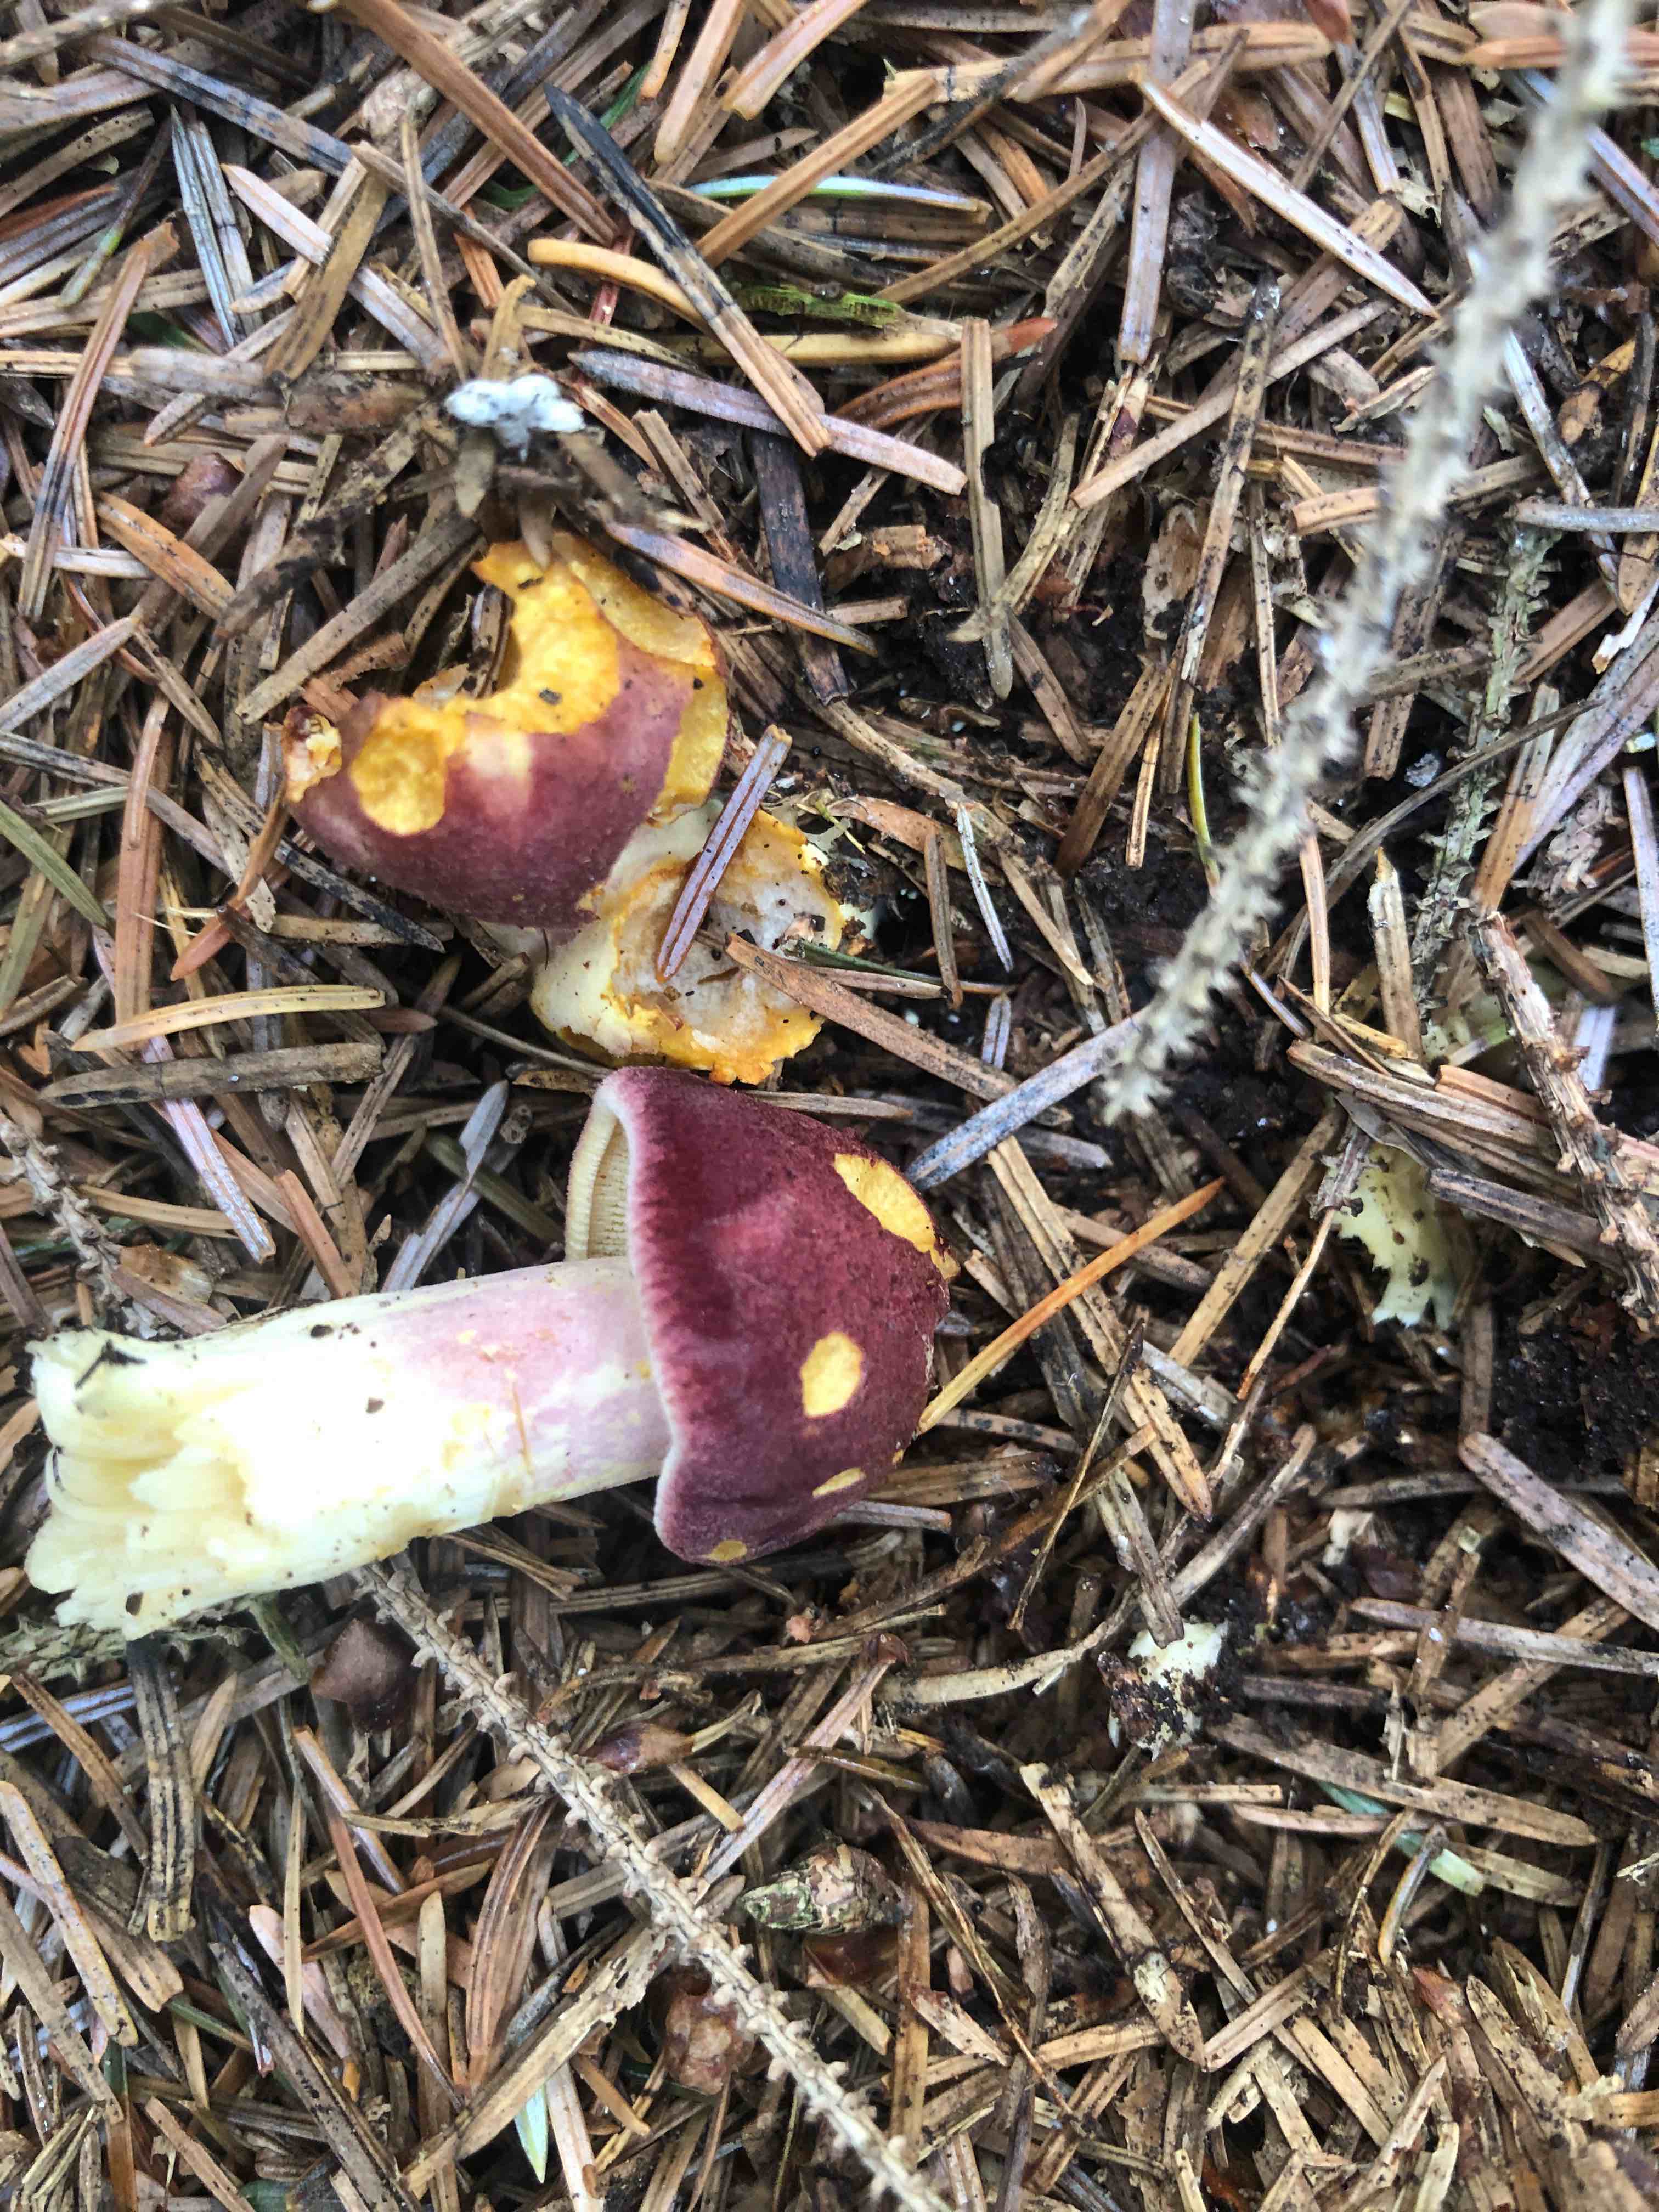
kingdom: Fungi
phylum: Basidiomycota
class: Agaricomycetes
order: Agaricales
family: Tricholomataceae
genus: Tricholomopsis
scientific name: Tricholomopsis rutilans
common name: purpur-væbnerhat
